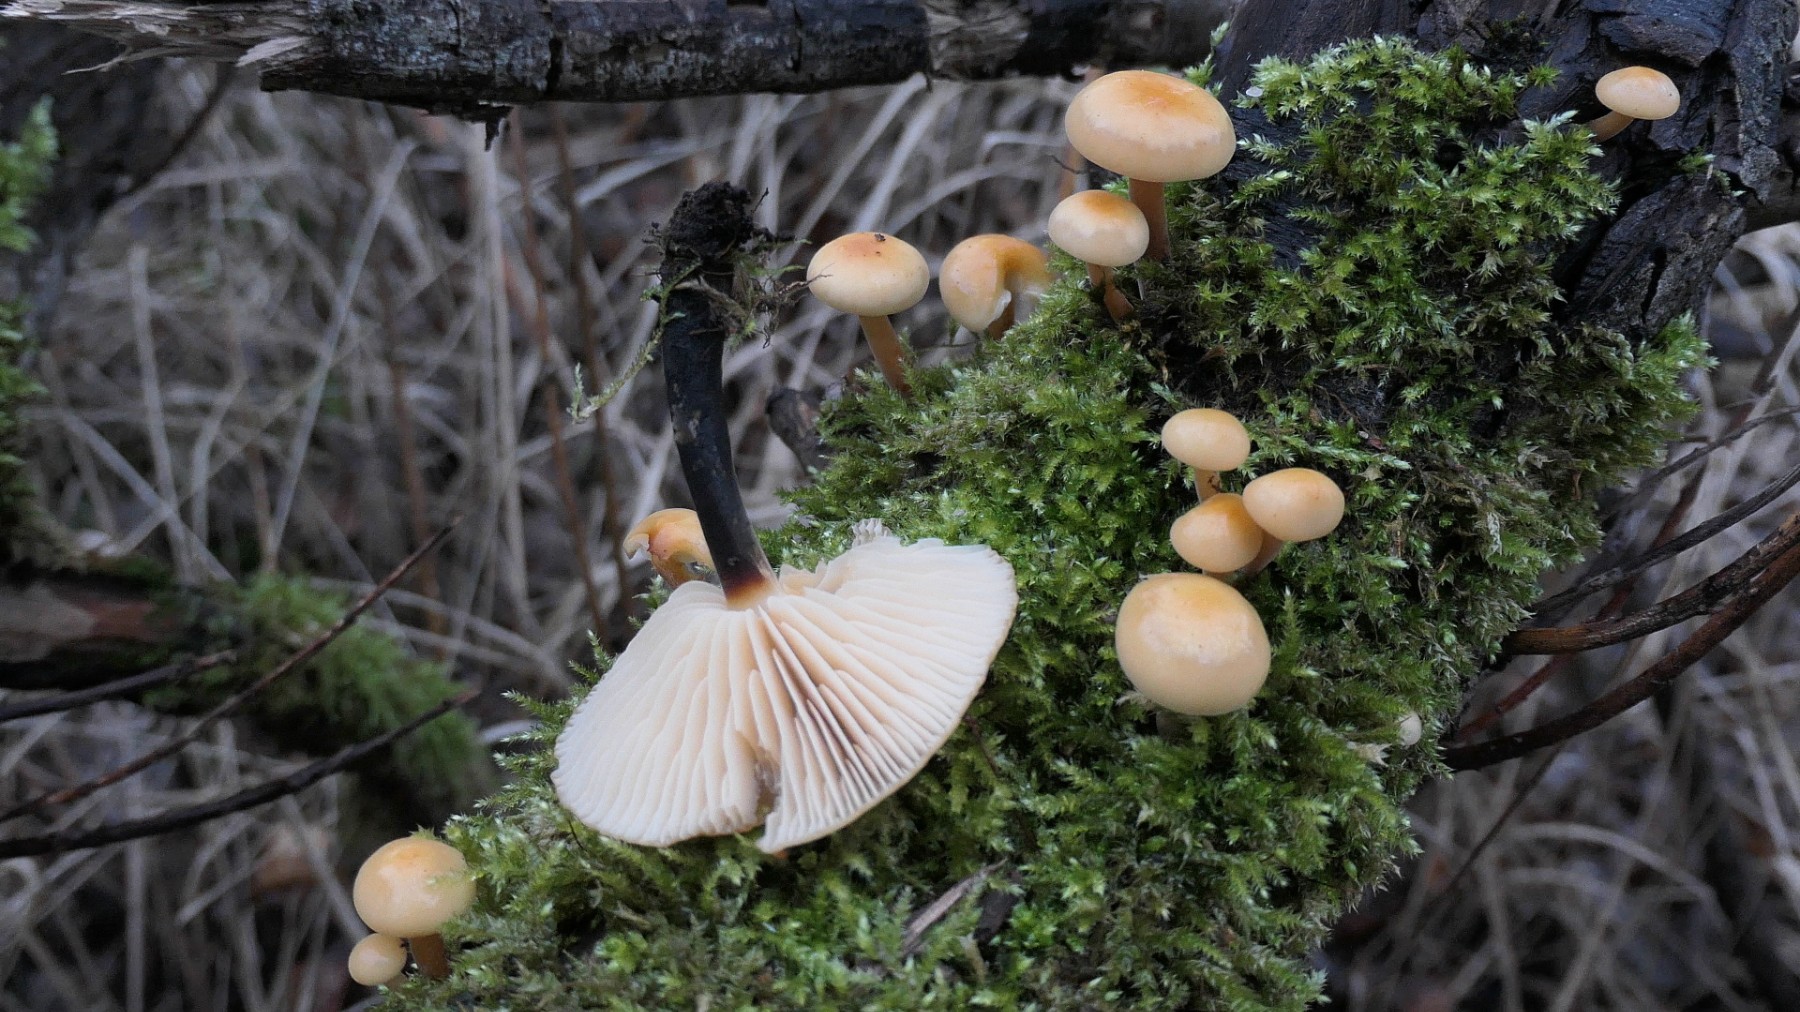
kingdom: Fungi
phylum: Basidiomycota
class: Agaricomycetes
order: Agaricales
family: Physalacriaceae
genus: Flammulina
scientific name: Flammulina elastica
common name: pile-fløjlsfod
